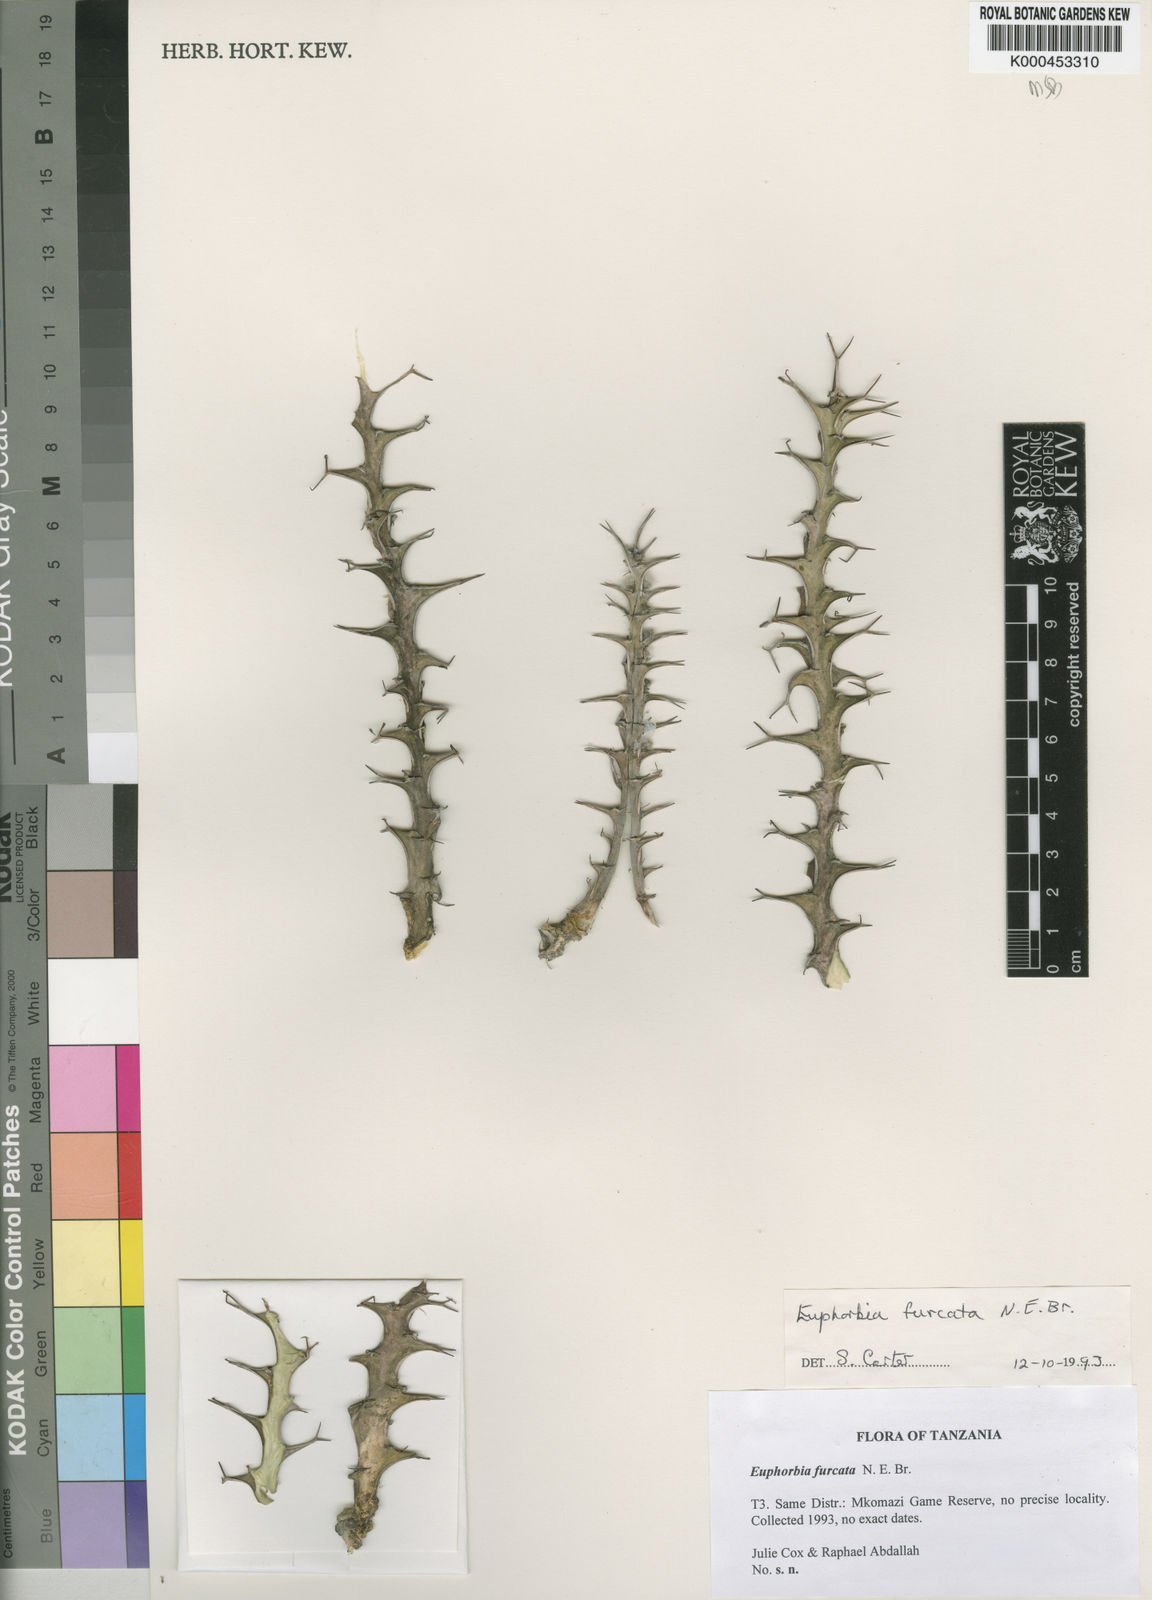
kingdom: Plantae
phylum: Tracheophyta
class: Magnoliopsida
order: Malpighiales
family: Euphorbiaceae
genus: Euphorbia
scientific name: Euphorbia furcata
